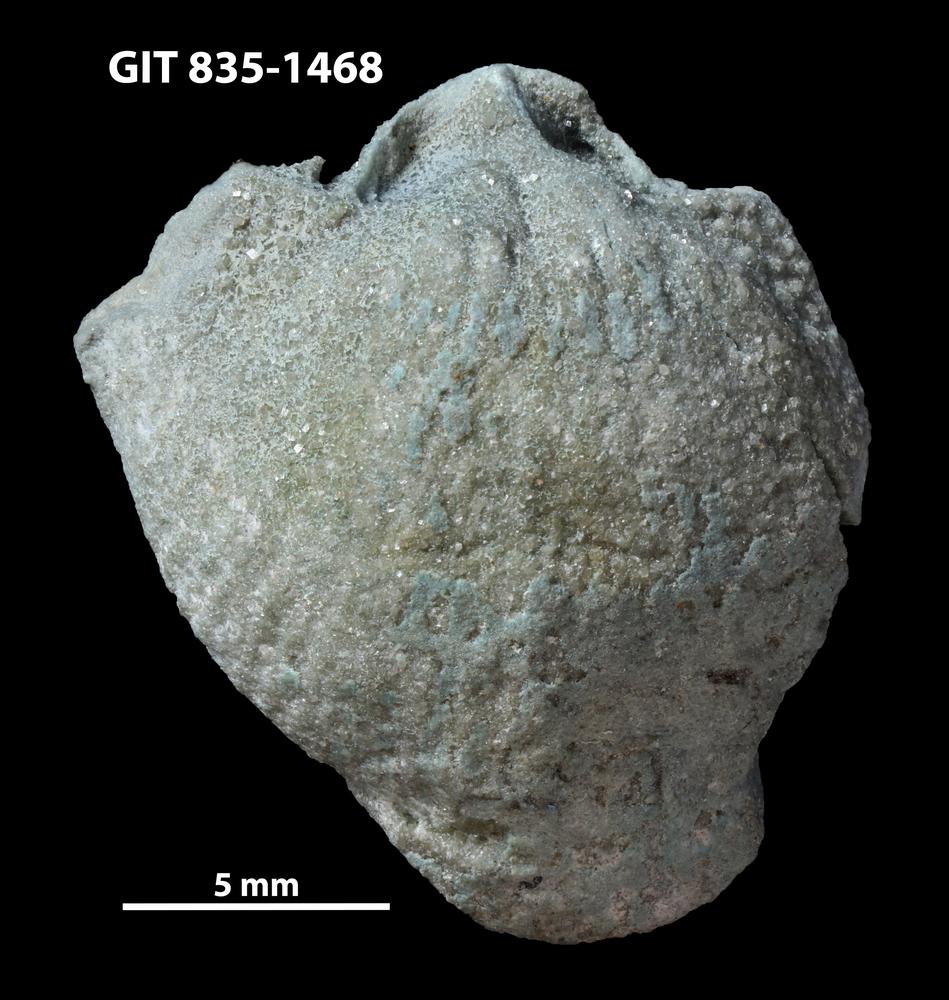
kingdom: Animalia
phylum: Brachiopoda
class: Rhynchonellata
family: Atrypidae
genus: Atrypa
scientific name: Atrypa
